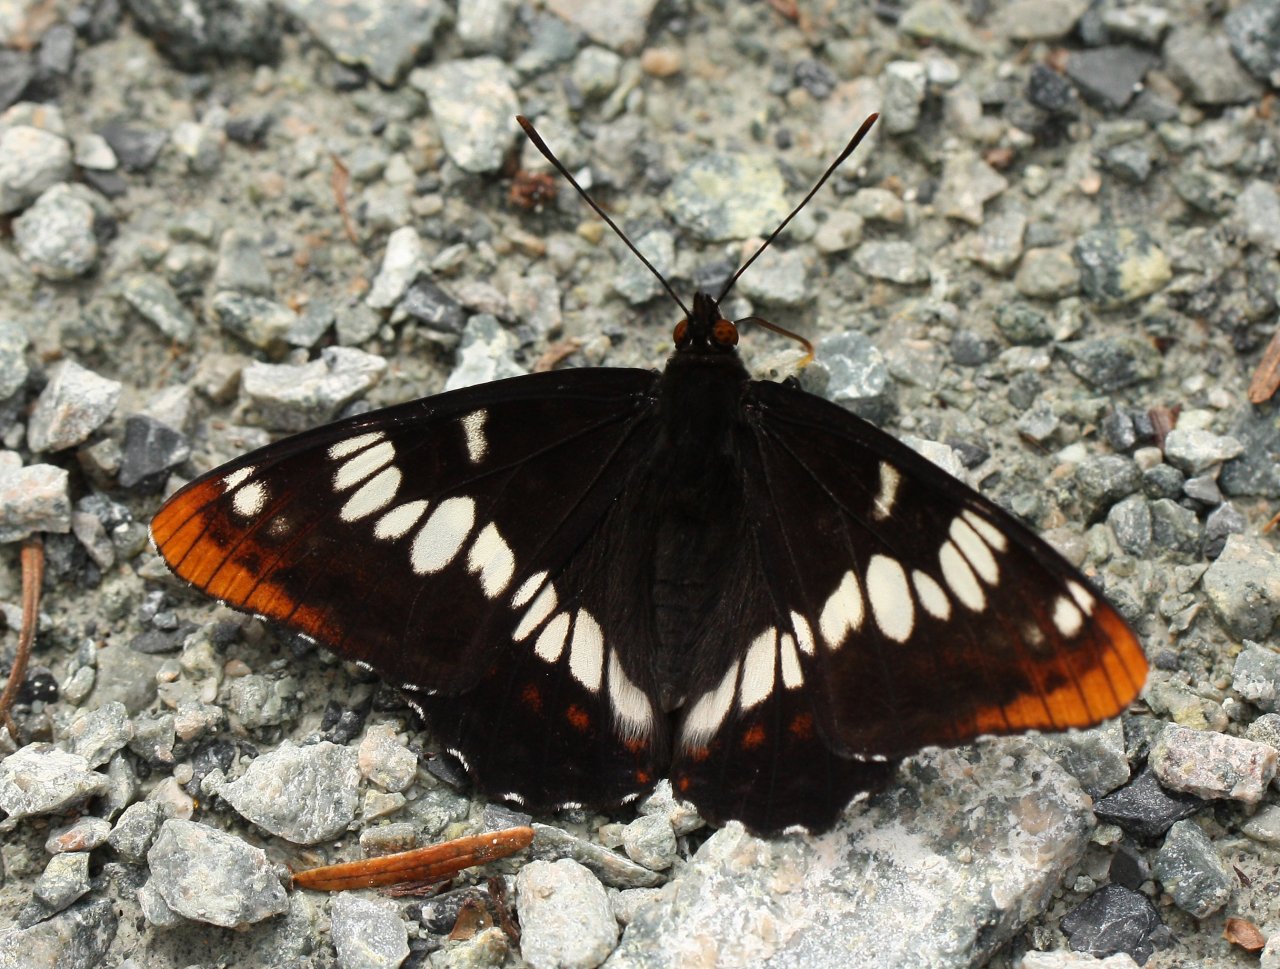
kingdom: Animalia
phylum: Arthropoda
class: Insecta
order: Lepidoptera
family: Nymphalidae
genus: Limenitis
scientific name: Limenitis lorquini
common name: Lorquin's Admiral
